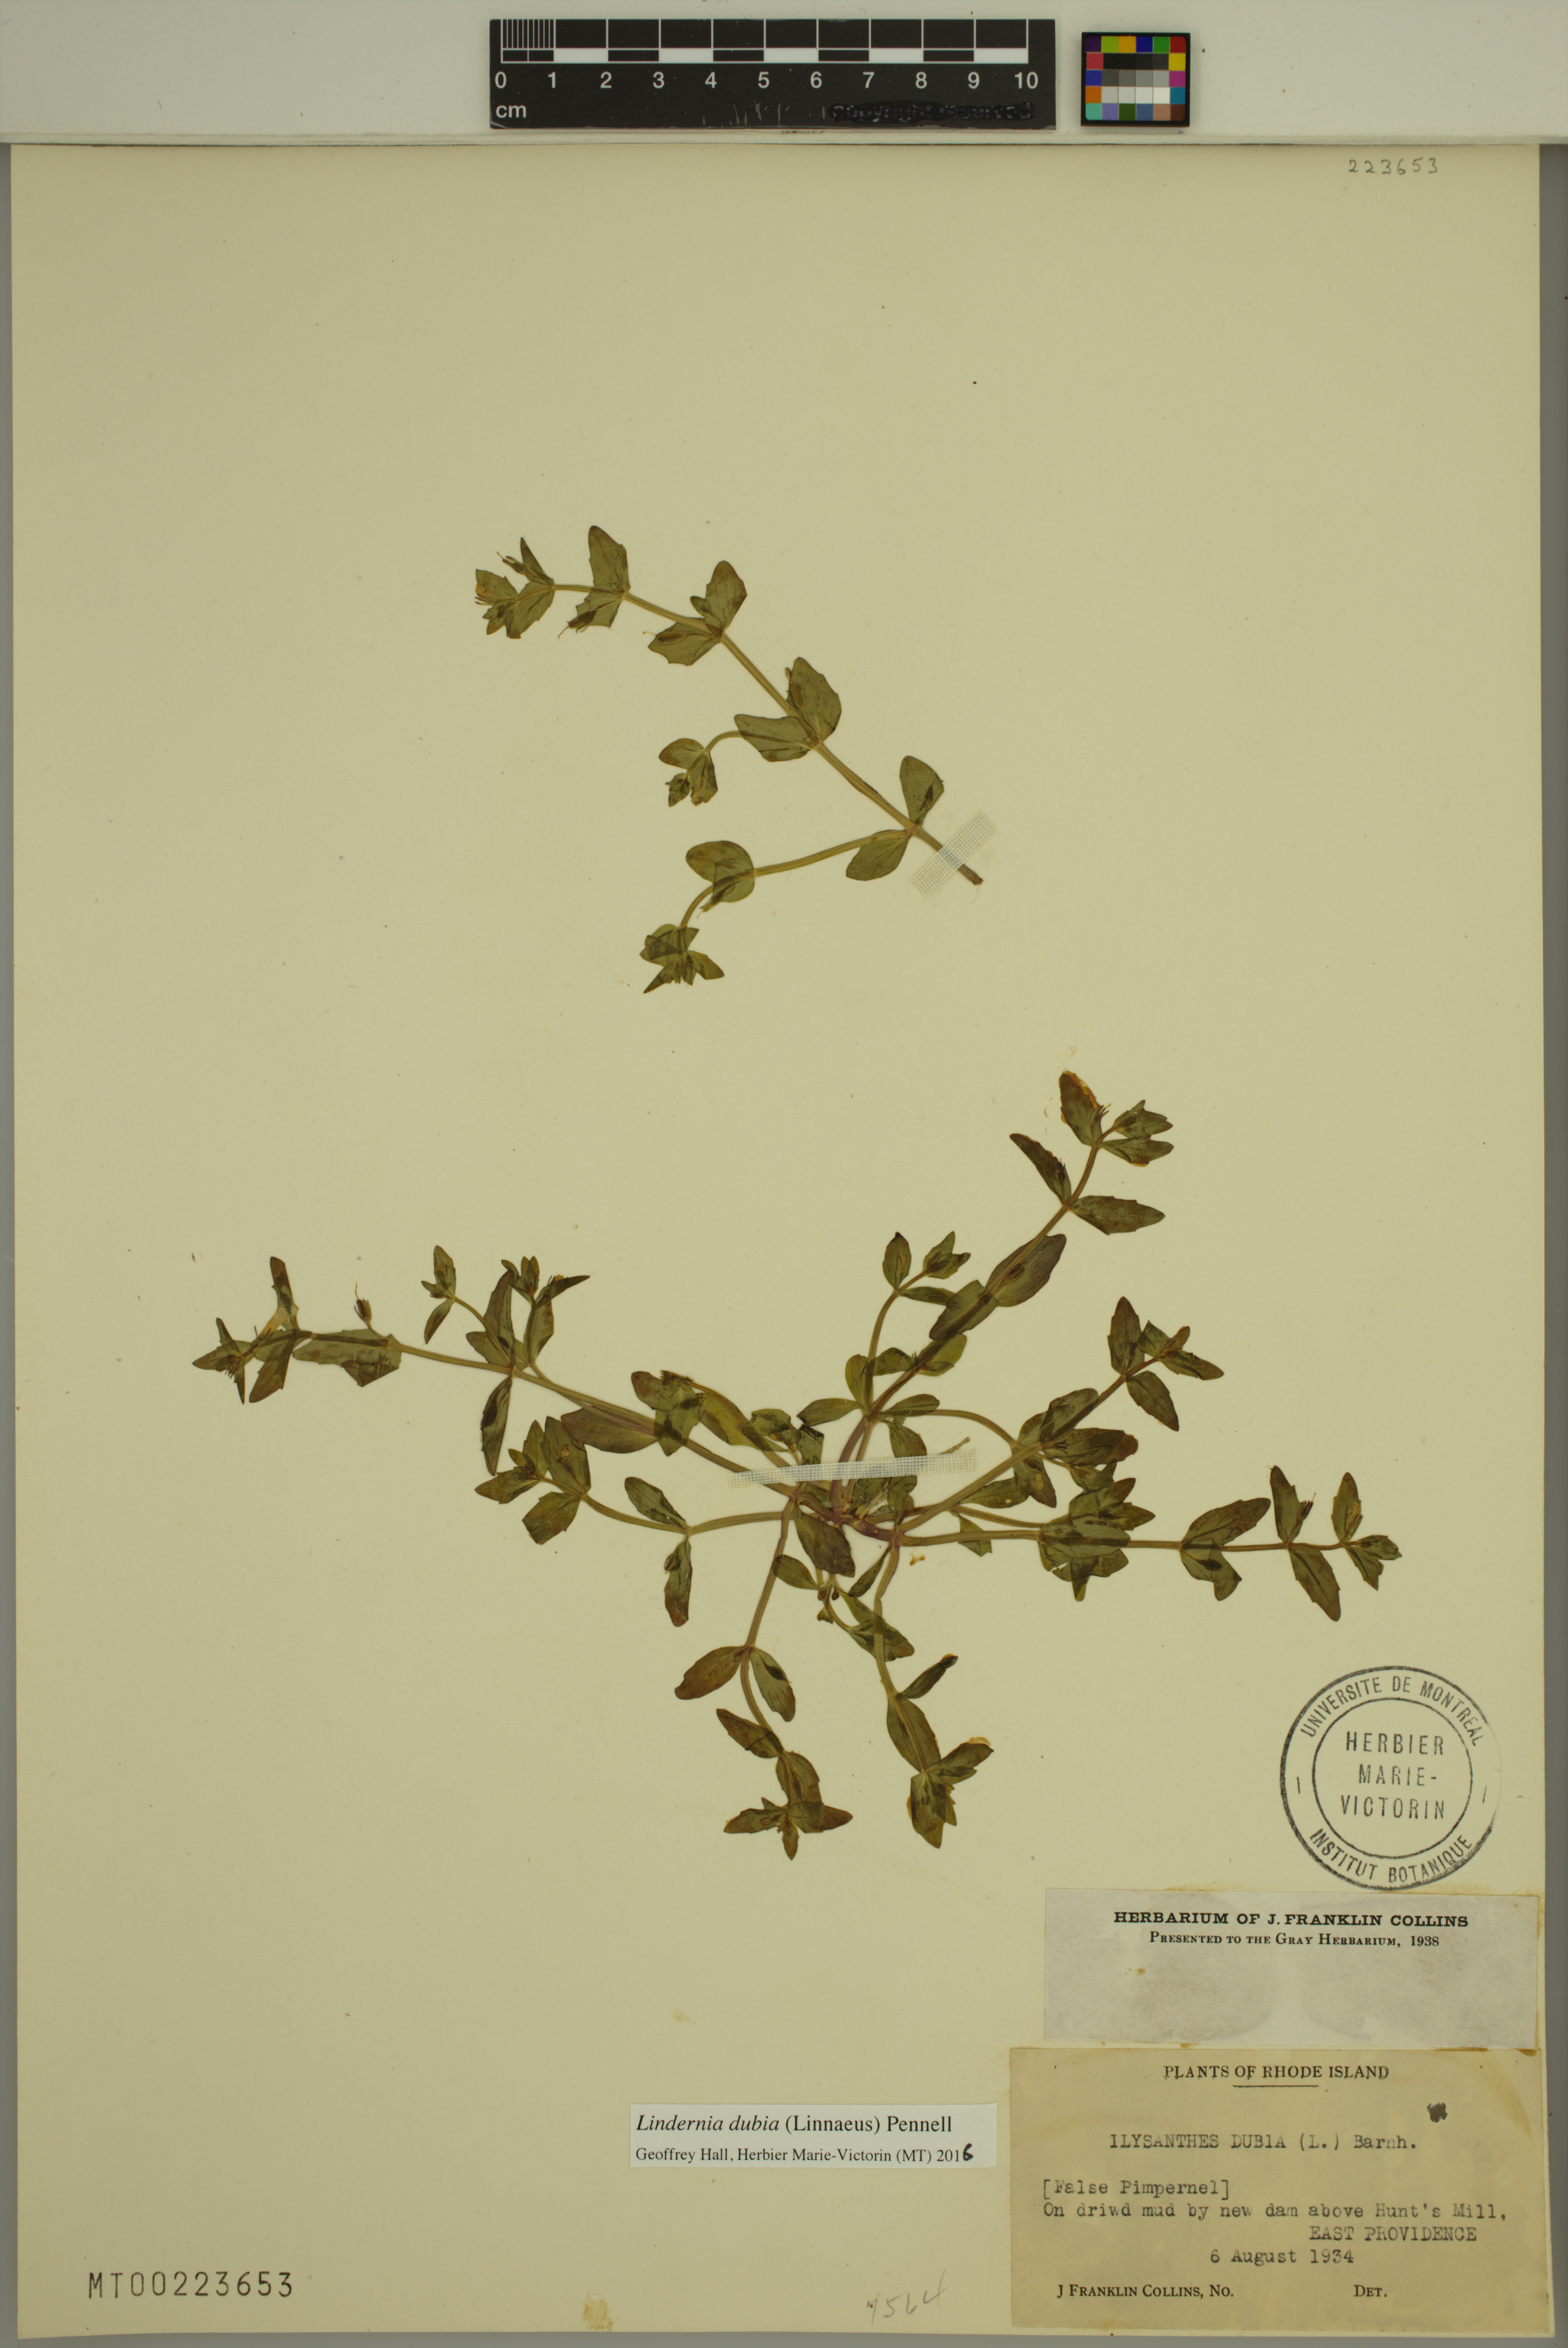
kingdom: Plantae
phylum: Tracheophyta
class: Magnoliopsida
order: Lamiales
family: Linderniaceae
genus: Lindernia
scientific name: Lindernia dubia
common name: Annual false pimpernel
